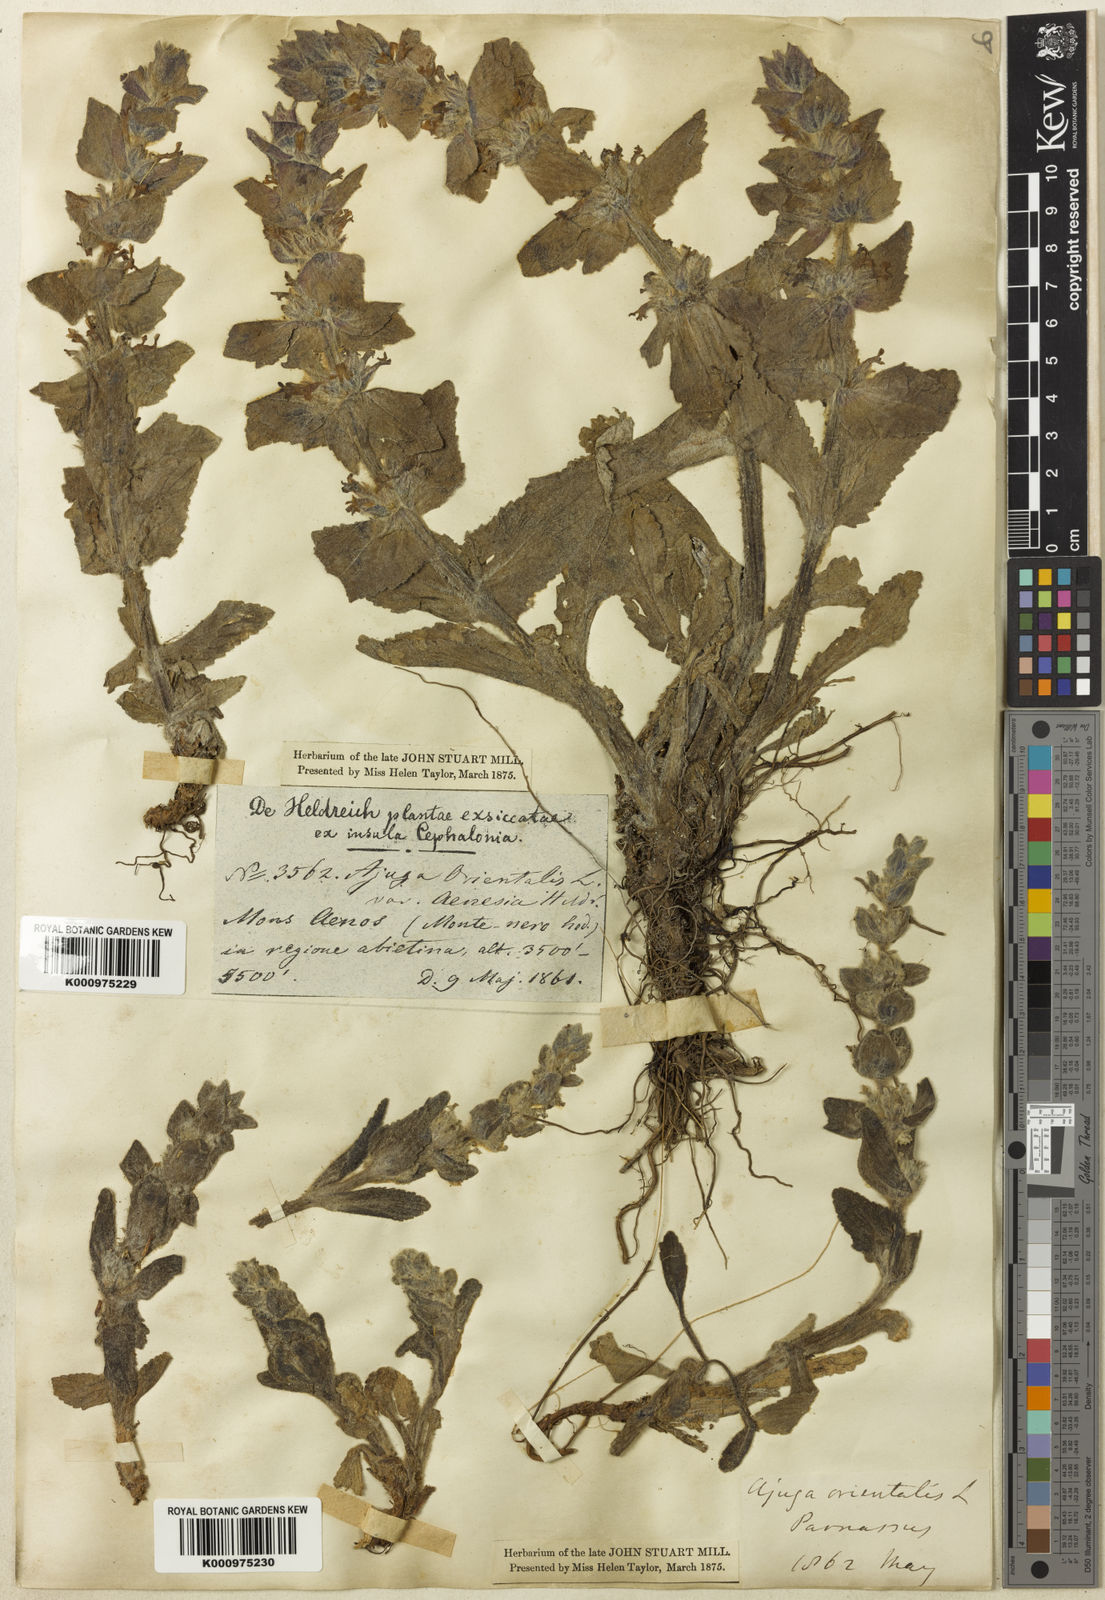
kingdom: Plantae
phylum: Tracheophyta
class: Magnoliopsida
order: Lamiales
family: Lamiaceae
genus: Ajuga
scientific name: Ajuga orientalis
